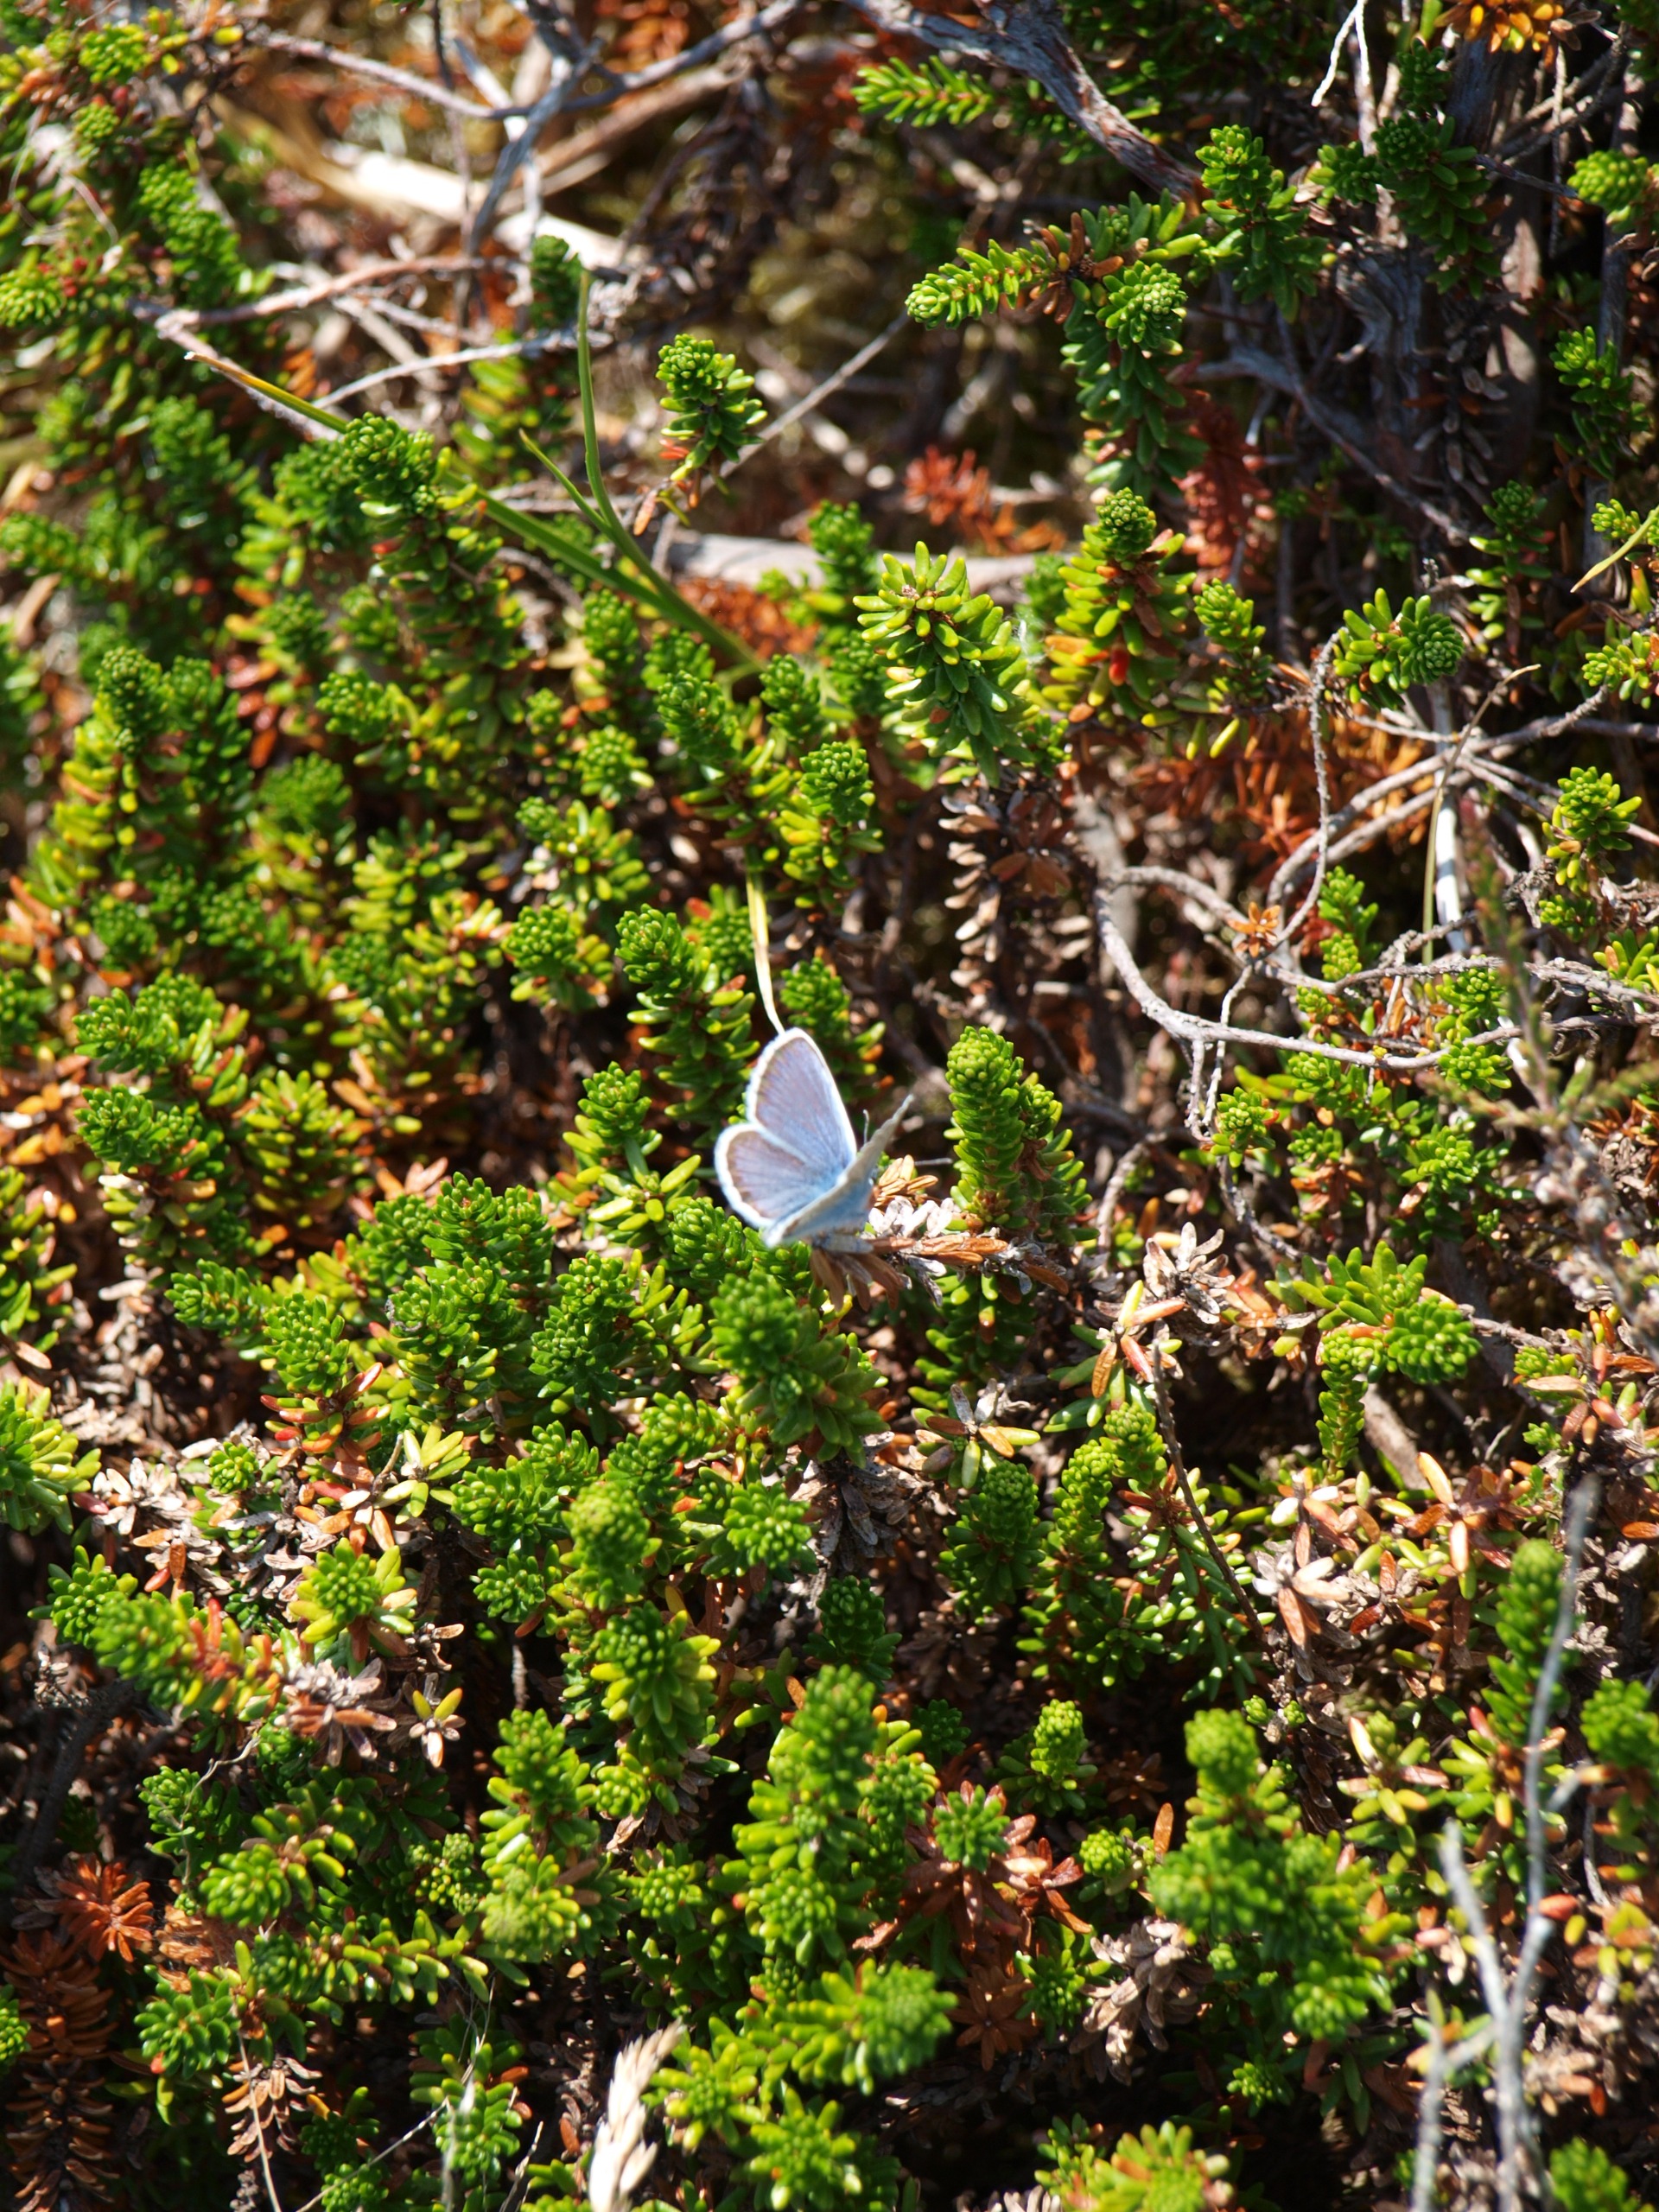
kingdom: Plantae
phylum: Tracheophyta
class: Magnoliopsida
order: Ericales
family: Ericaceae
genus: Empetrum
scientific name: Empetrum nigrum
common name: Revling
